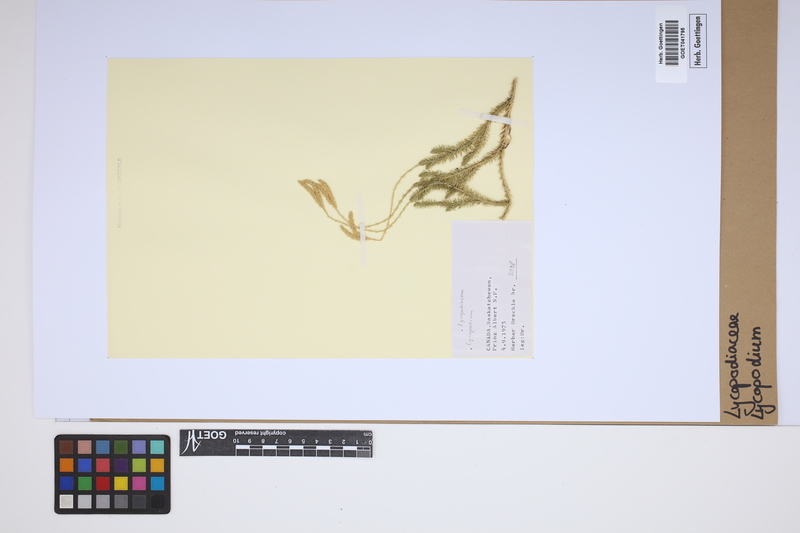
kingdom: Plantae
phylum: Tracheophyta
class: Lycopodiopsida
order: Lycopodiales
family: Lycopodiaceae
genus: Lycopodium
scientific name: Lycopodium
